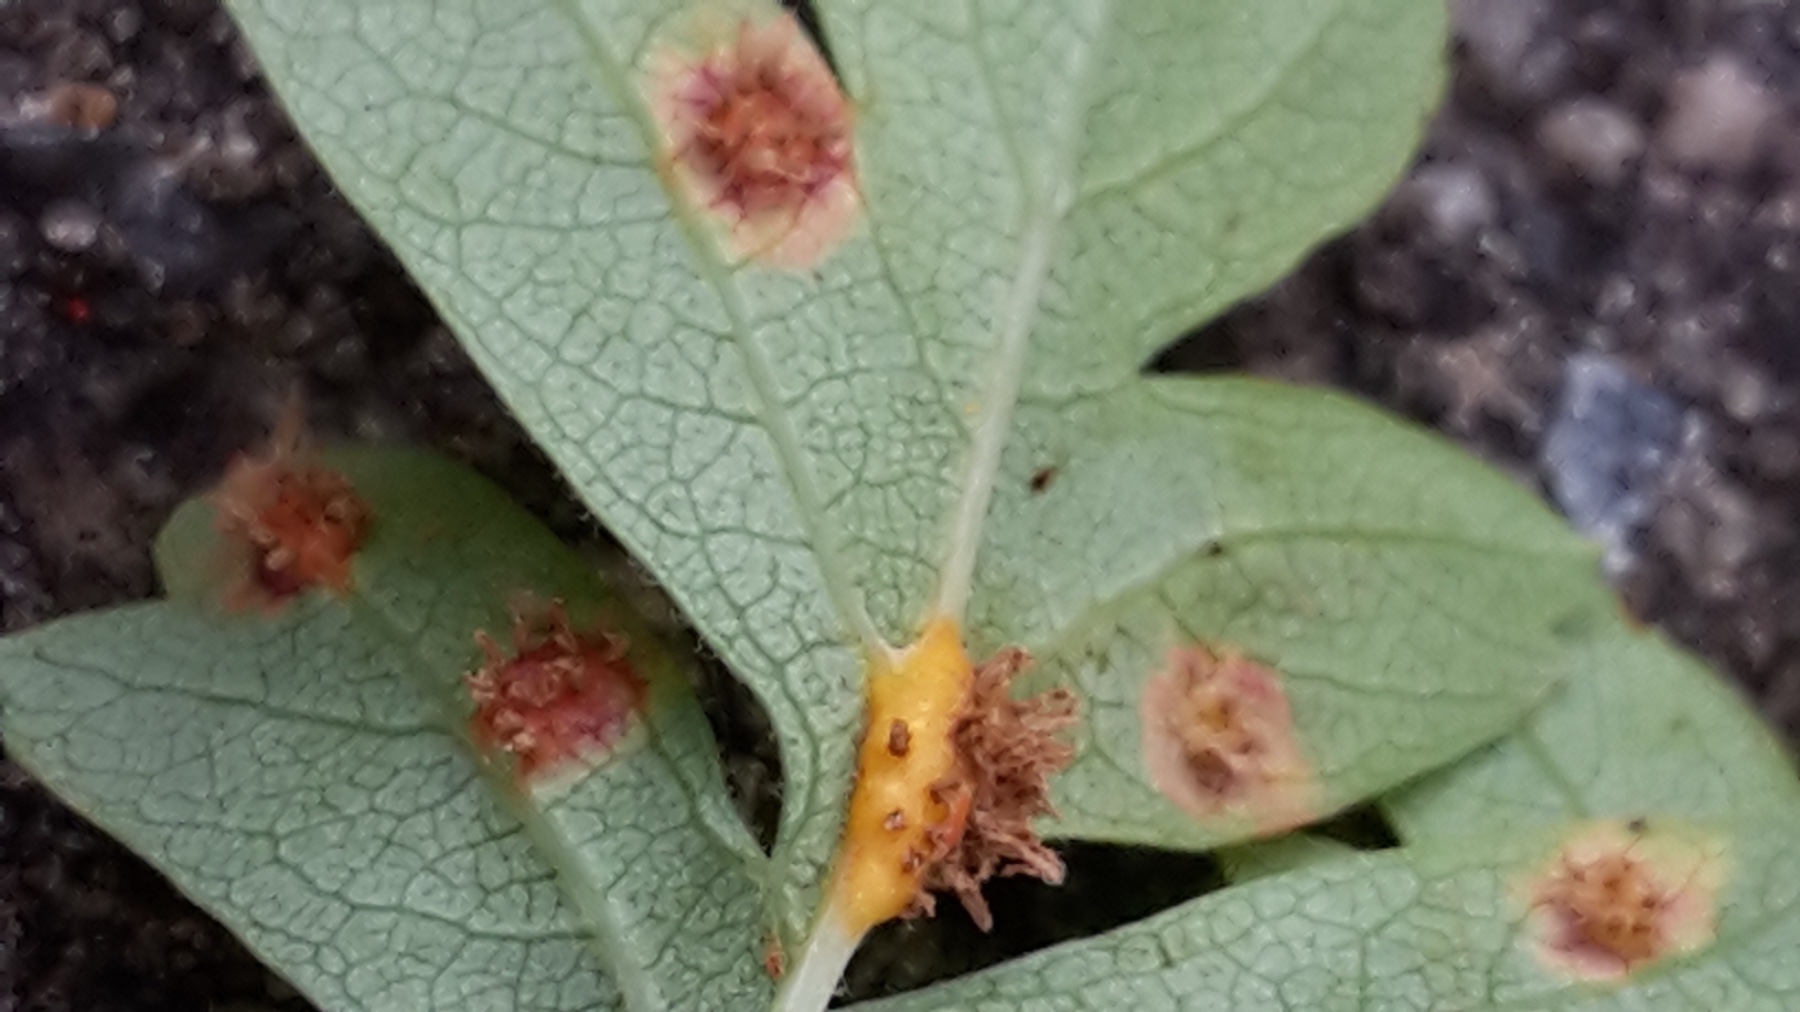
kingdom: Fungi
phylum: Basidiomycota
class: Pucciniomycetes
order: Pucciniales
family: Gymnosporangiaceae
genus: Gymnosporangium
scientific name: Gymnosporangium
